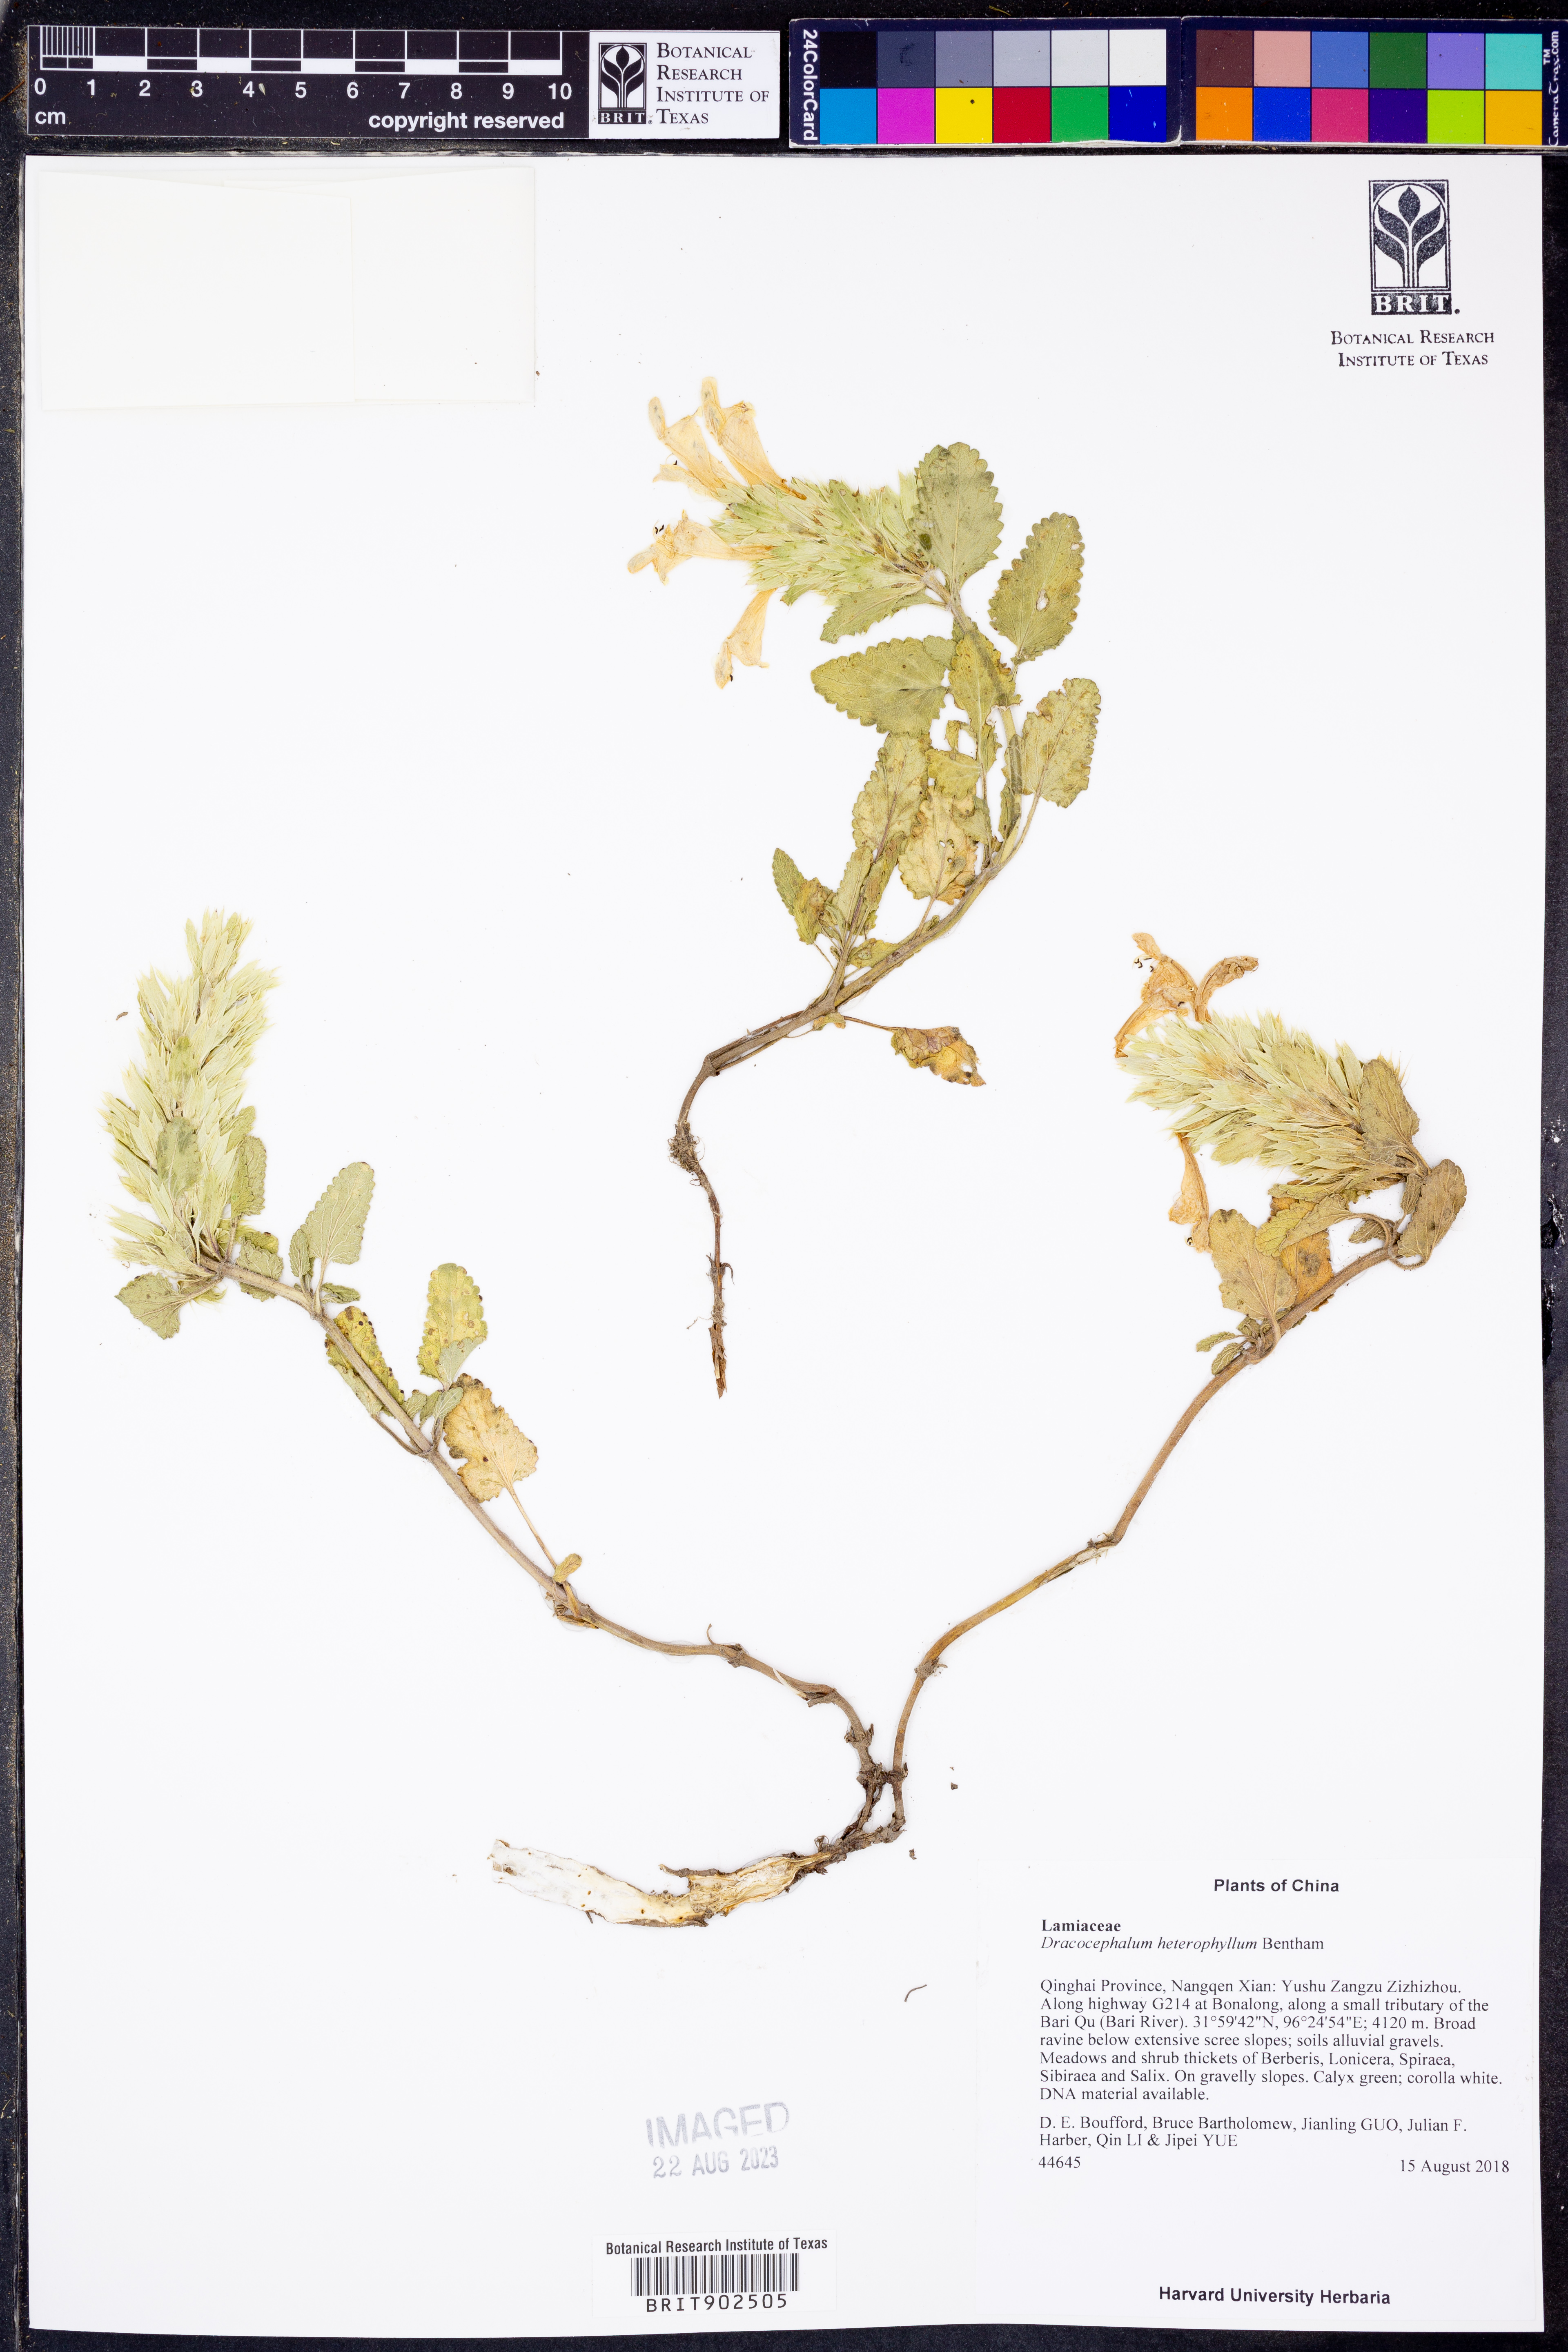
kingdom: Plantae
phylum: Tracheophyta
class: Magnoliopsida
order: Lamiales
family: Lamiaceae
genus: Dracocephalum
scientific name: Dracocephalum heterophyllum
